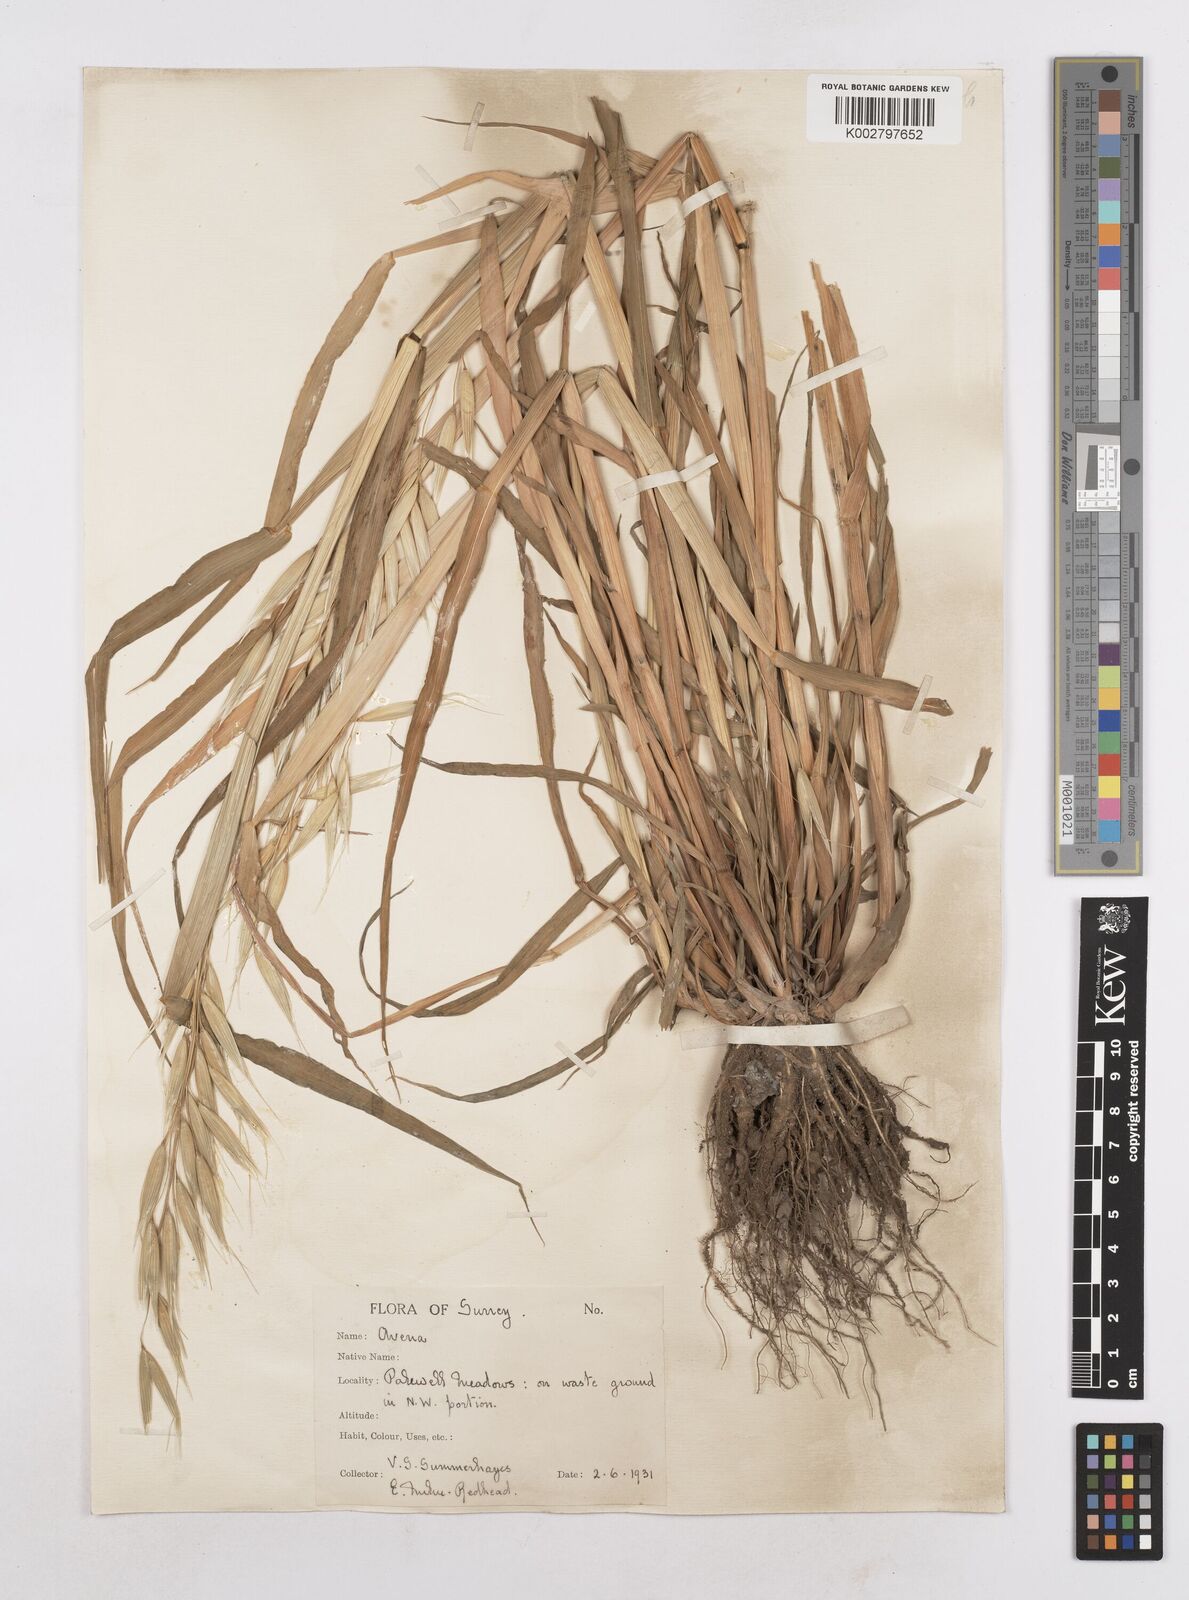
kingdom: Plantae
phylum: Tracheophyta
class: Liliopsida
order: Poales
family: Poaceae
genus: Avena
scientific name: Avena byzantina
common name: Algerian oat
